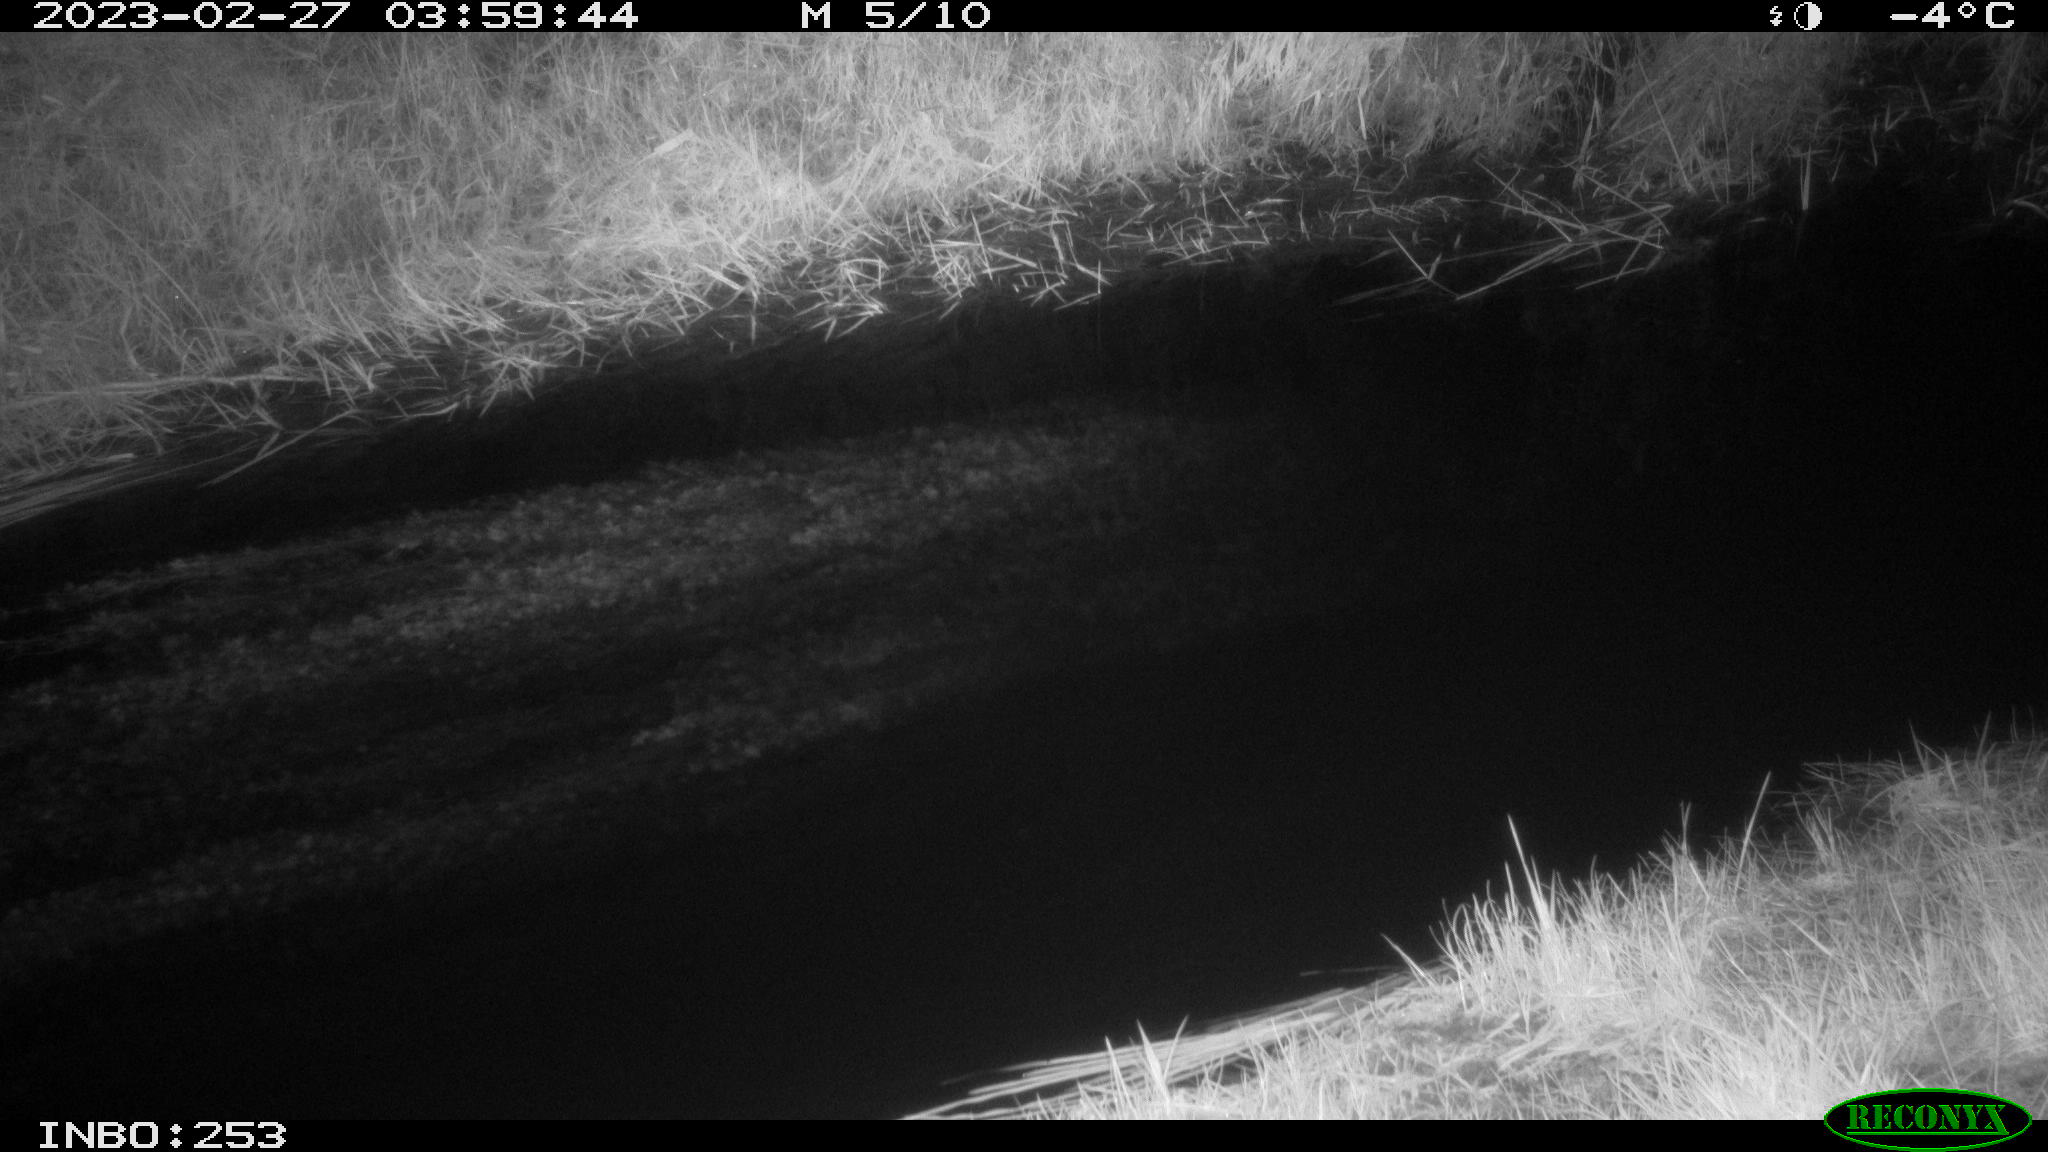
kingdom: Animalia
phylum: Chordata
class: Aves
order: Anseriformes
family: Anatidae
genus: Anas
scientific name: Anas
